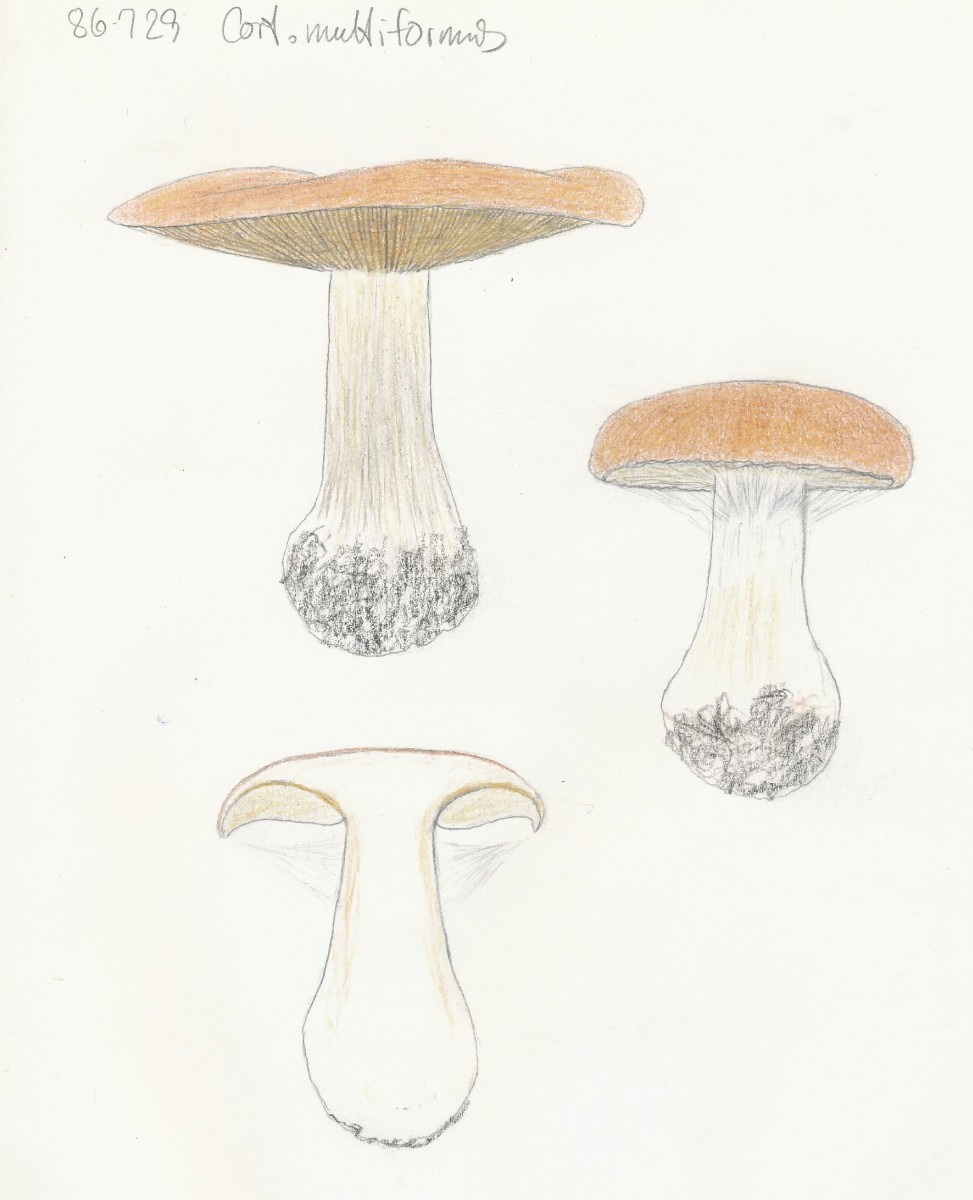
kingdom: Fungi
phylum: Basidiomycota
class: Agaricomycetes
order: Agaricales
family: Cortinariaceae
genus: Thaxterogaster
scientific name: Thaxterogaster multiformis
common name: honning-slørhat
